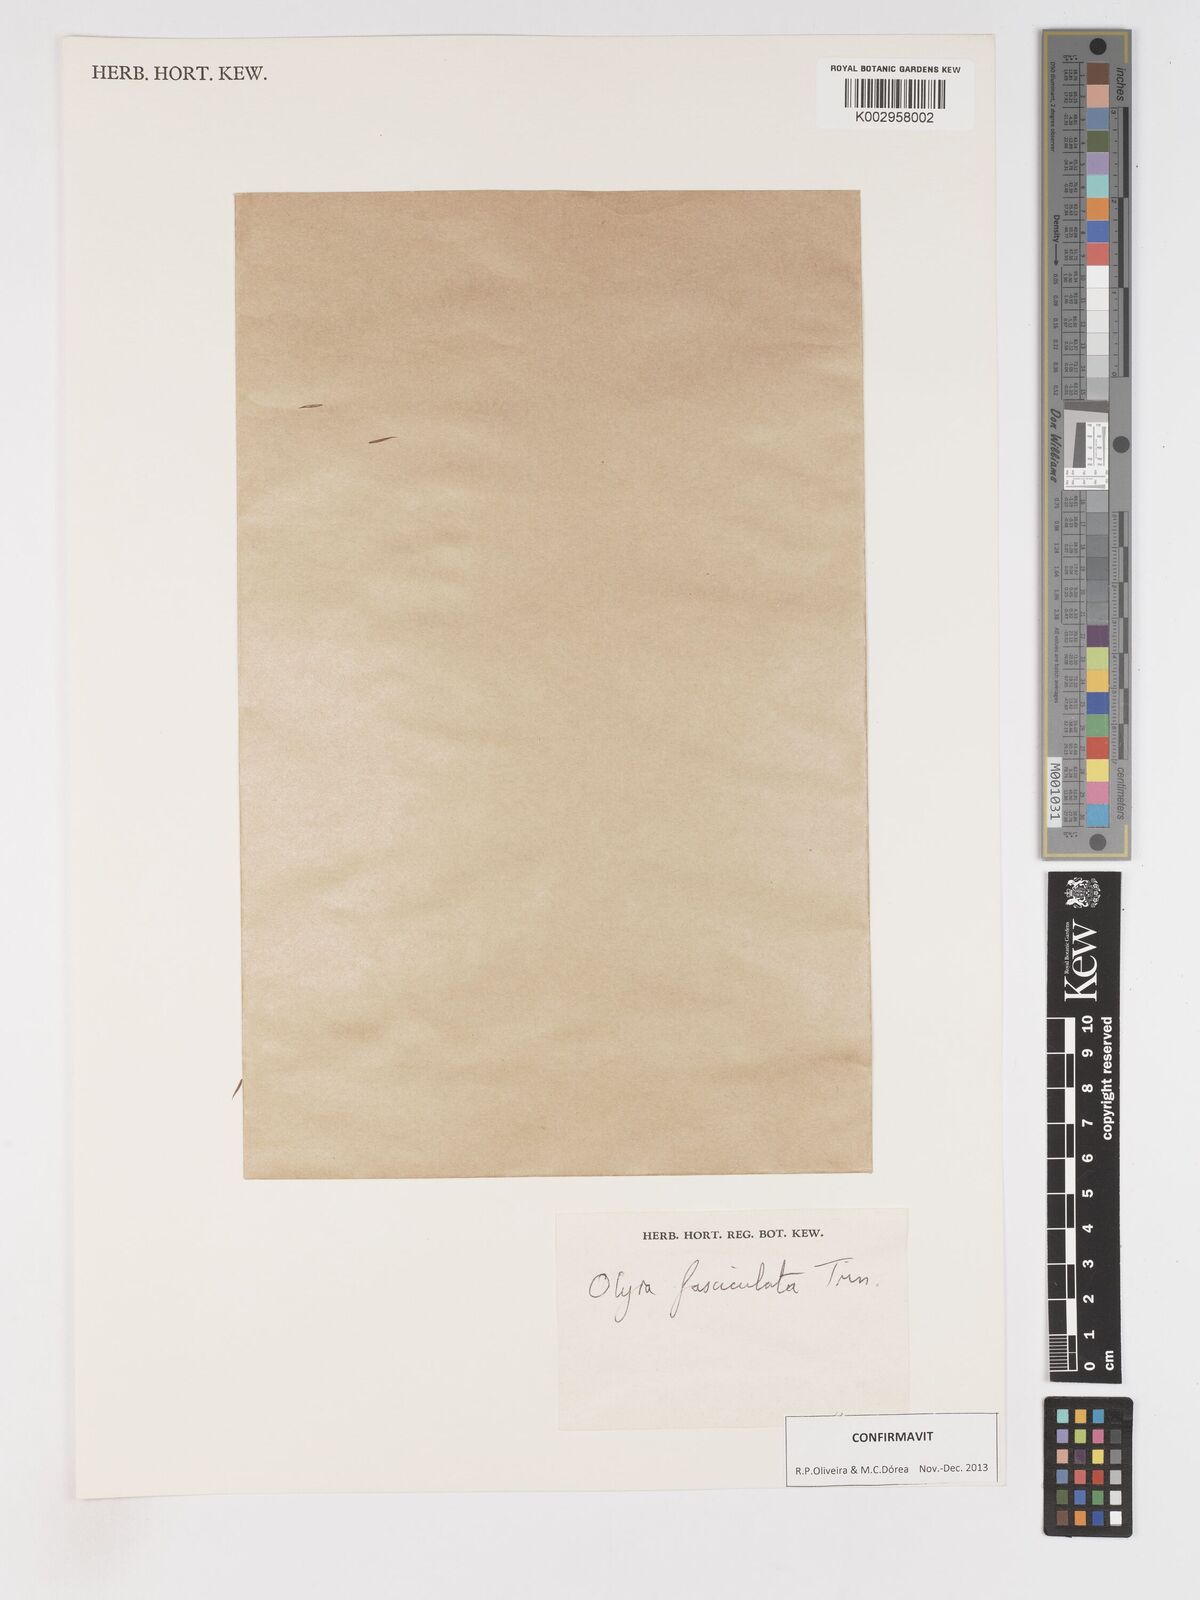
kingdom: Plantae
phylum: Tracheophyta
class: Liliopsida
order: Poales
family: Poaceae
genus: Olyra
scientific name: Olyra fasciculata
